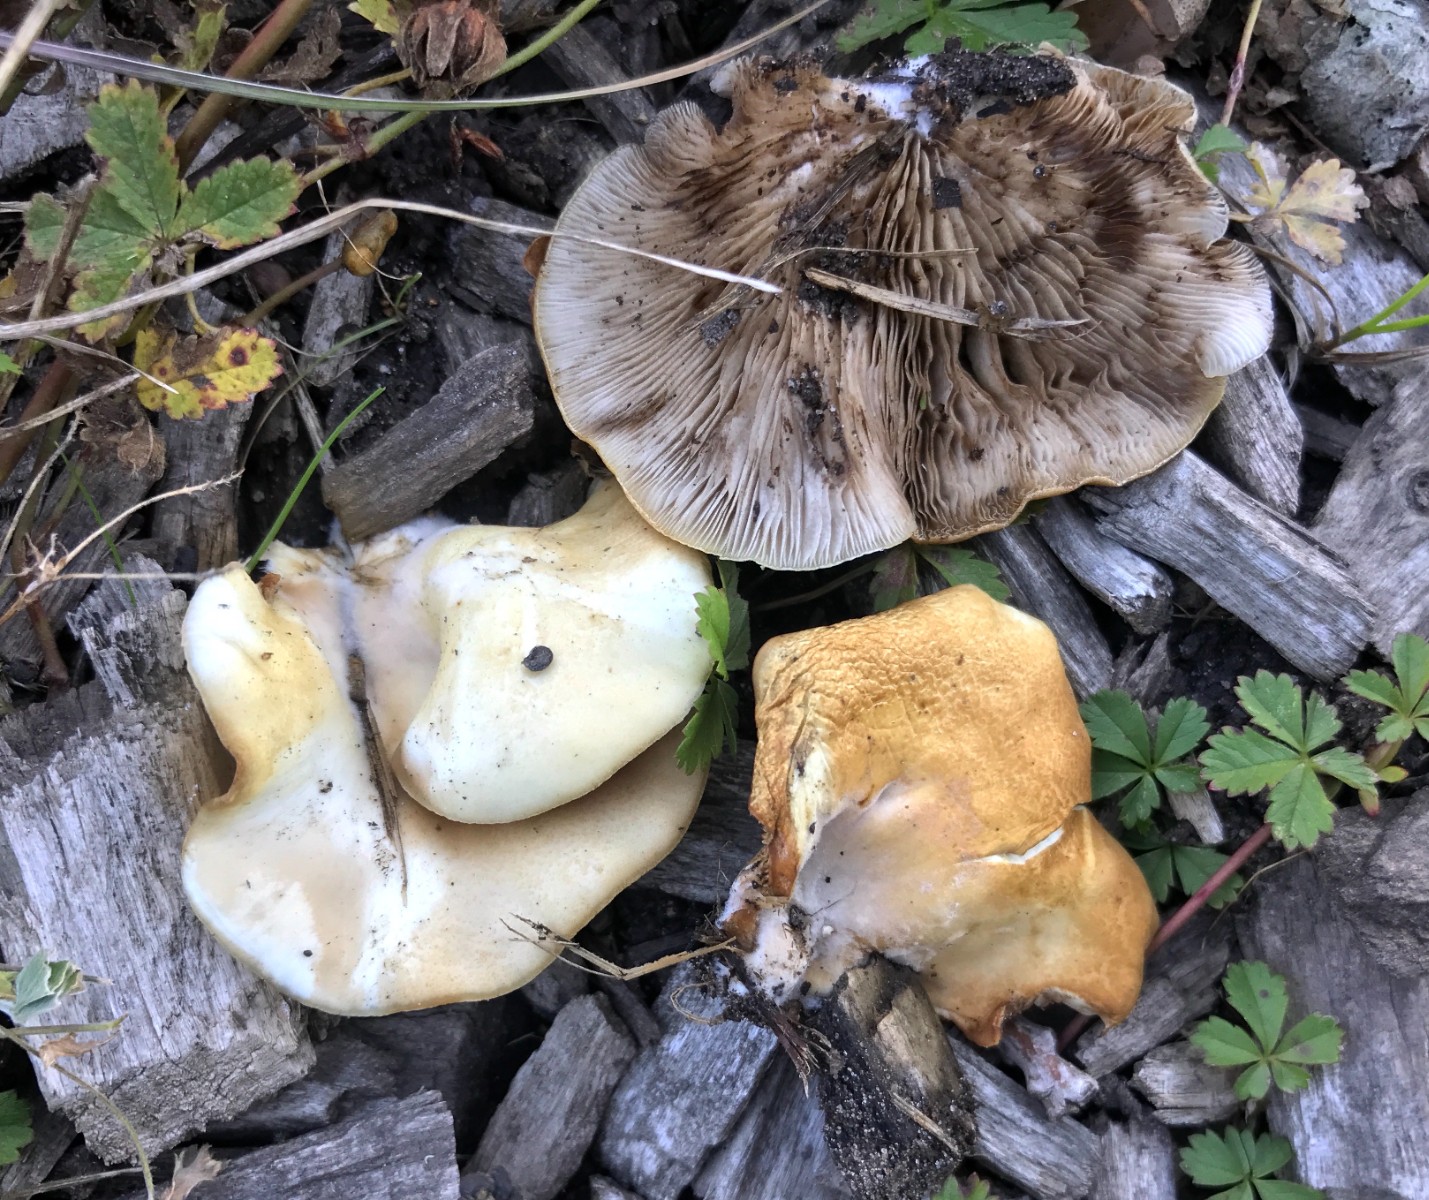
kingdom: Fungi
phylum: Basidiomycota
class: Agaricomycetes
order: Agaricales
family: Crepidotaceae
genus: Crepidotus
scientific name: Crepidotus autochthonus
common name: skæv muslingesvamp
